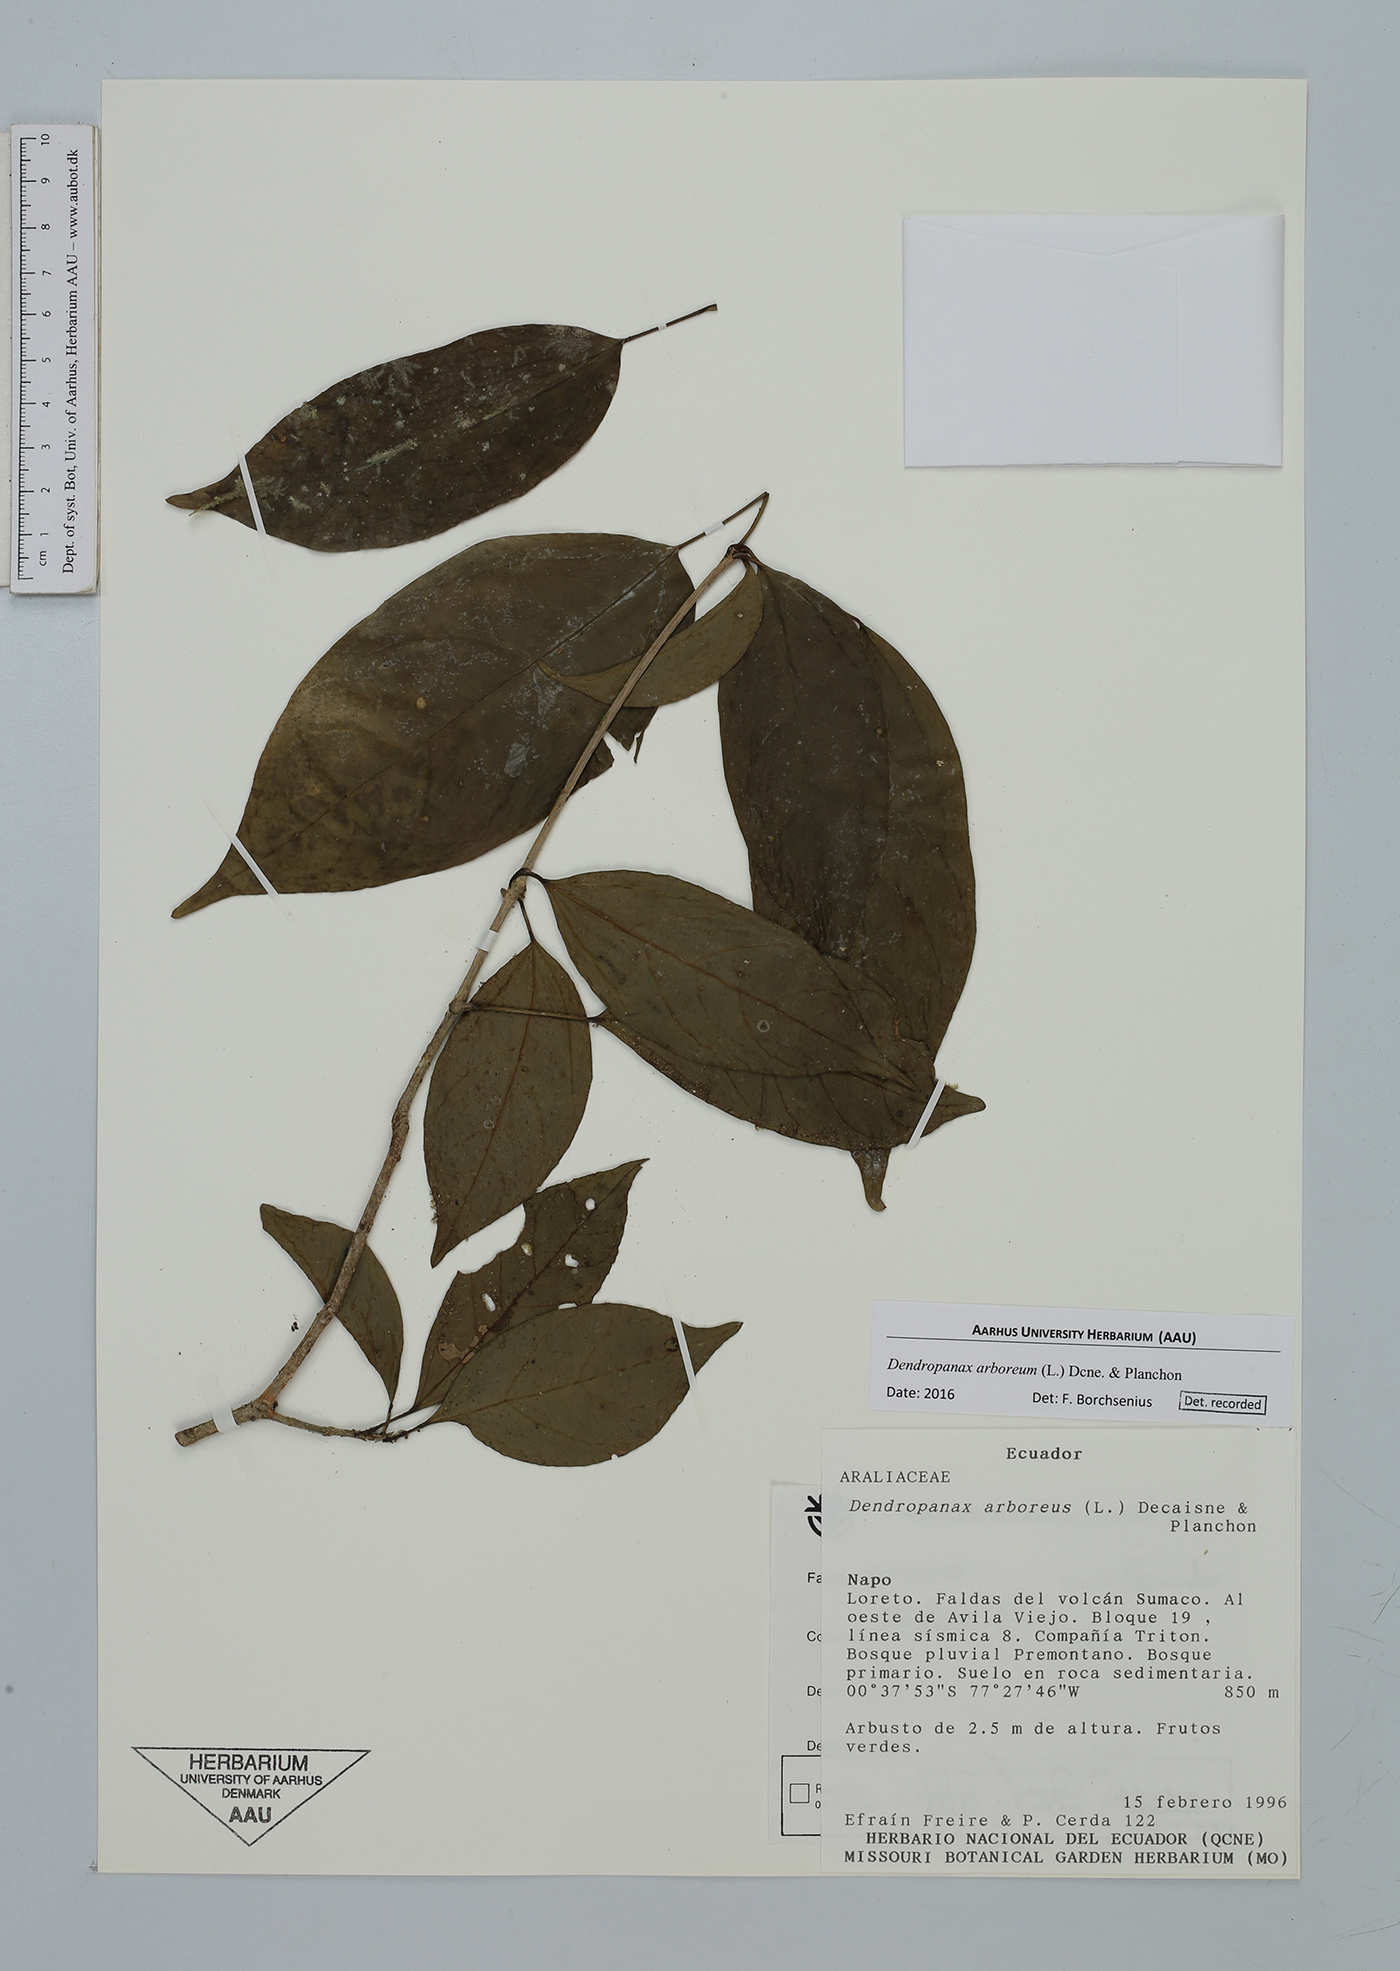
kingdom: Plantae
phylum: Tracheophyta
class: Magnoliopsida
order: Apiales
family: Araliaceae
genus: Dendropanax
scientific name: Dendropanax arboreus
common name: Potato-wood
